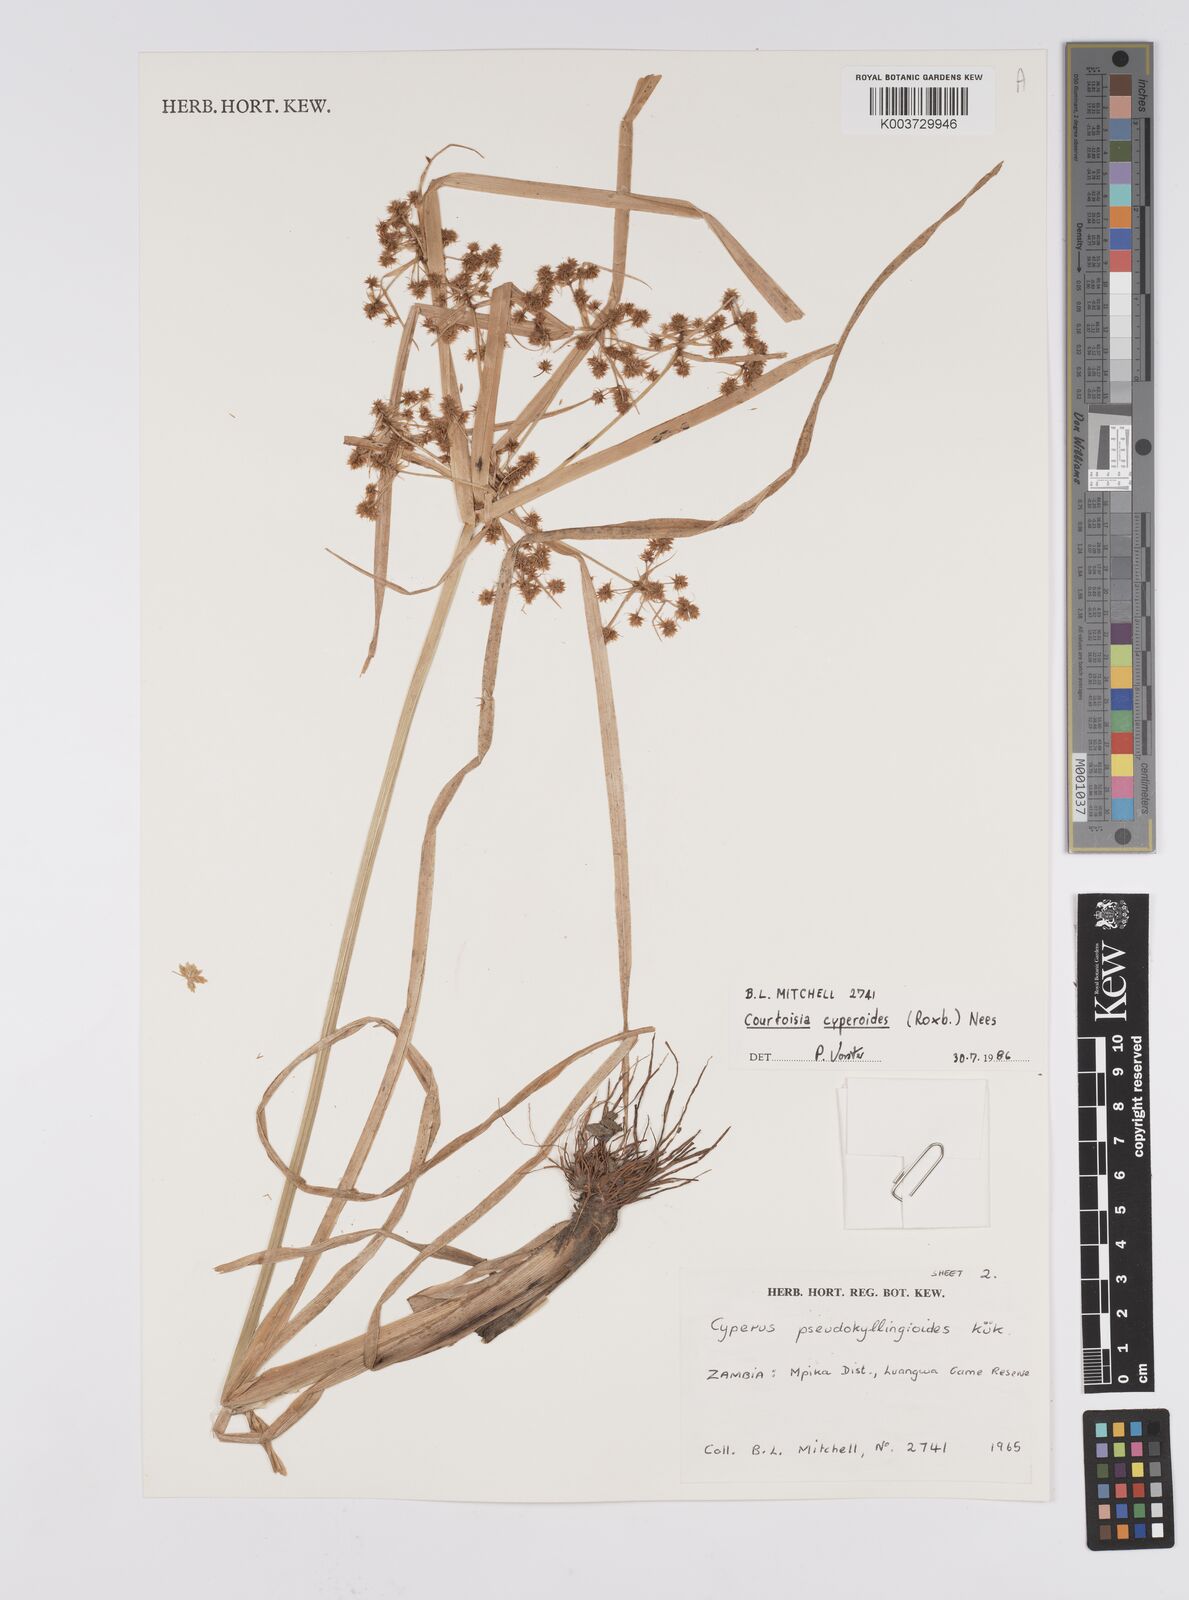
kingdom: Plantae
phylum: Tracheophyta
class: Liliopsida
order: Poales
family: Cyperaceae
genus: Cyperus
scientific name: Cyperus cyperoides
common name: Pacific island flat sedge
